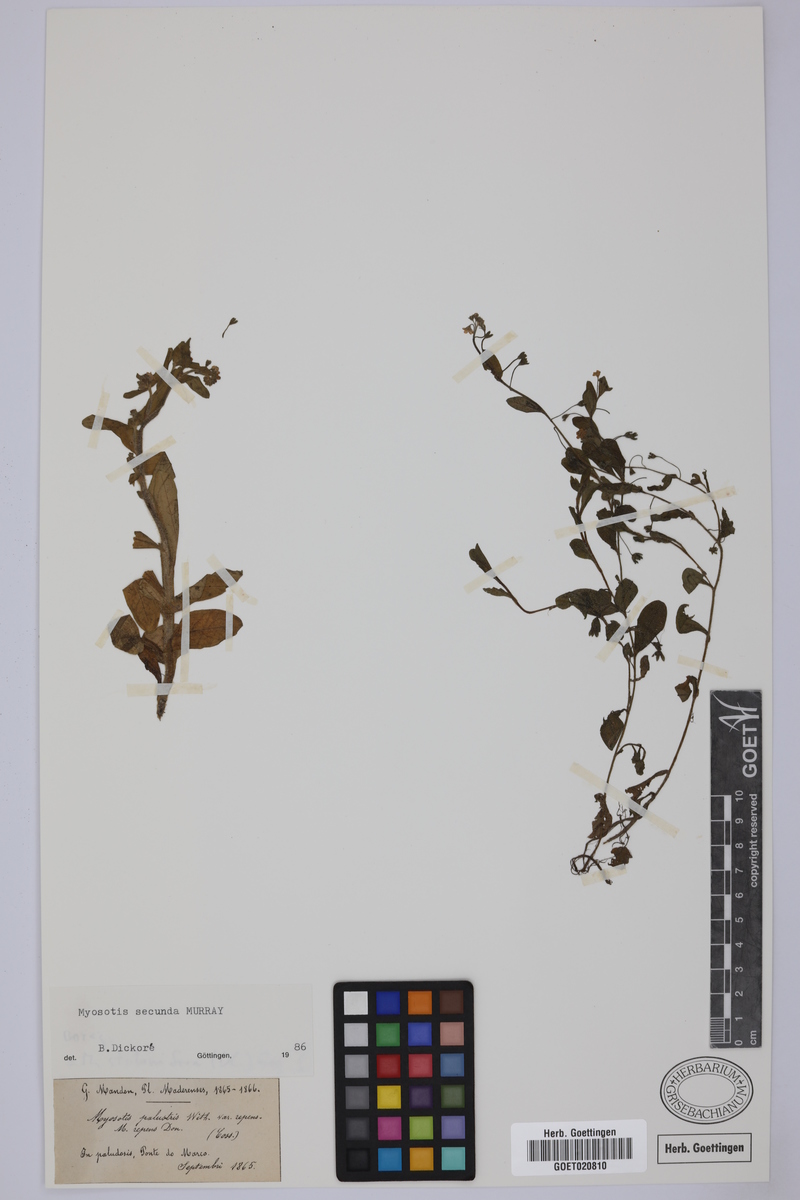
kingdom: Plantae
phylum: Tracheophyta
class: Magnoliopsida
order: Boraginales
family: Boraginaceae
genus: Myosotis
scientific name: Myosotis secunda
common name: Creeping forget-me-not
